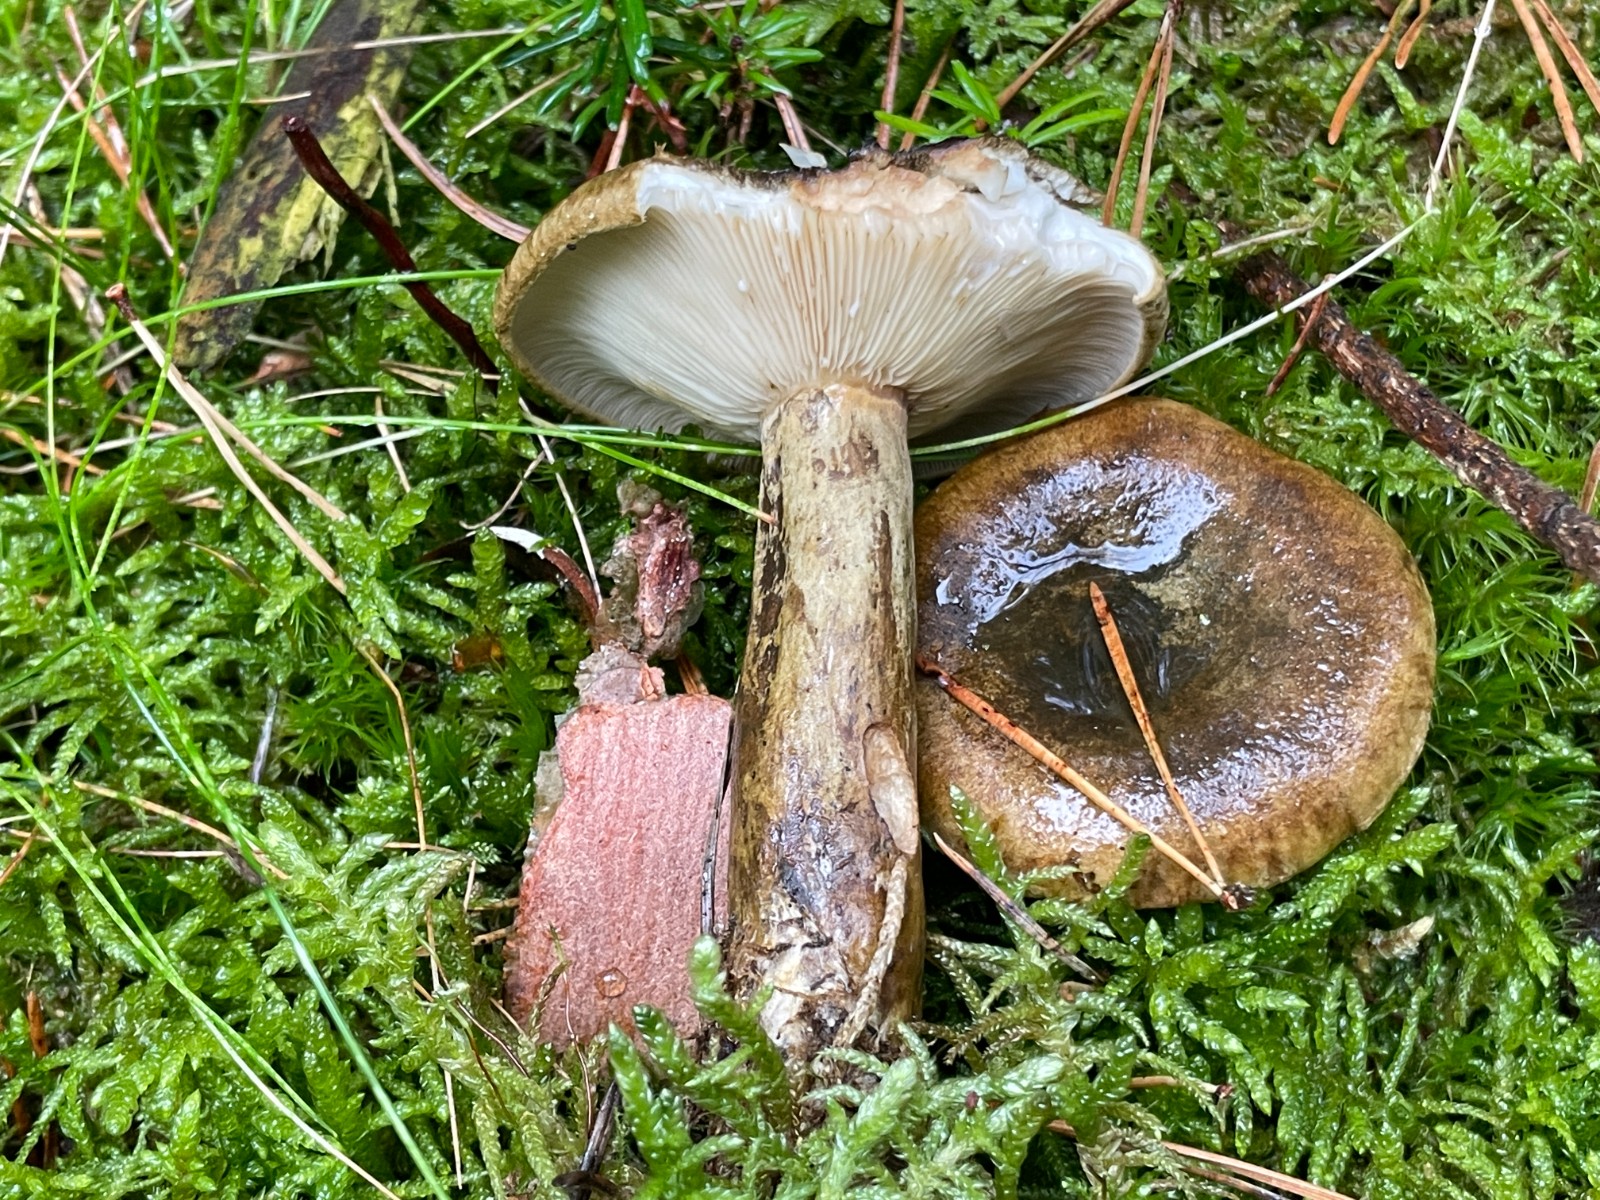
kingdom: Fungi
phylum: Basidiomycota
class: Agaricomycetes
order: Russulales
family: Russulaceae
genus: Lactarius
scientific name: Lactarius necator
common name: manddraber-mælkehat
